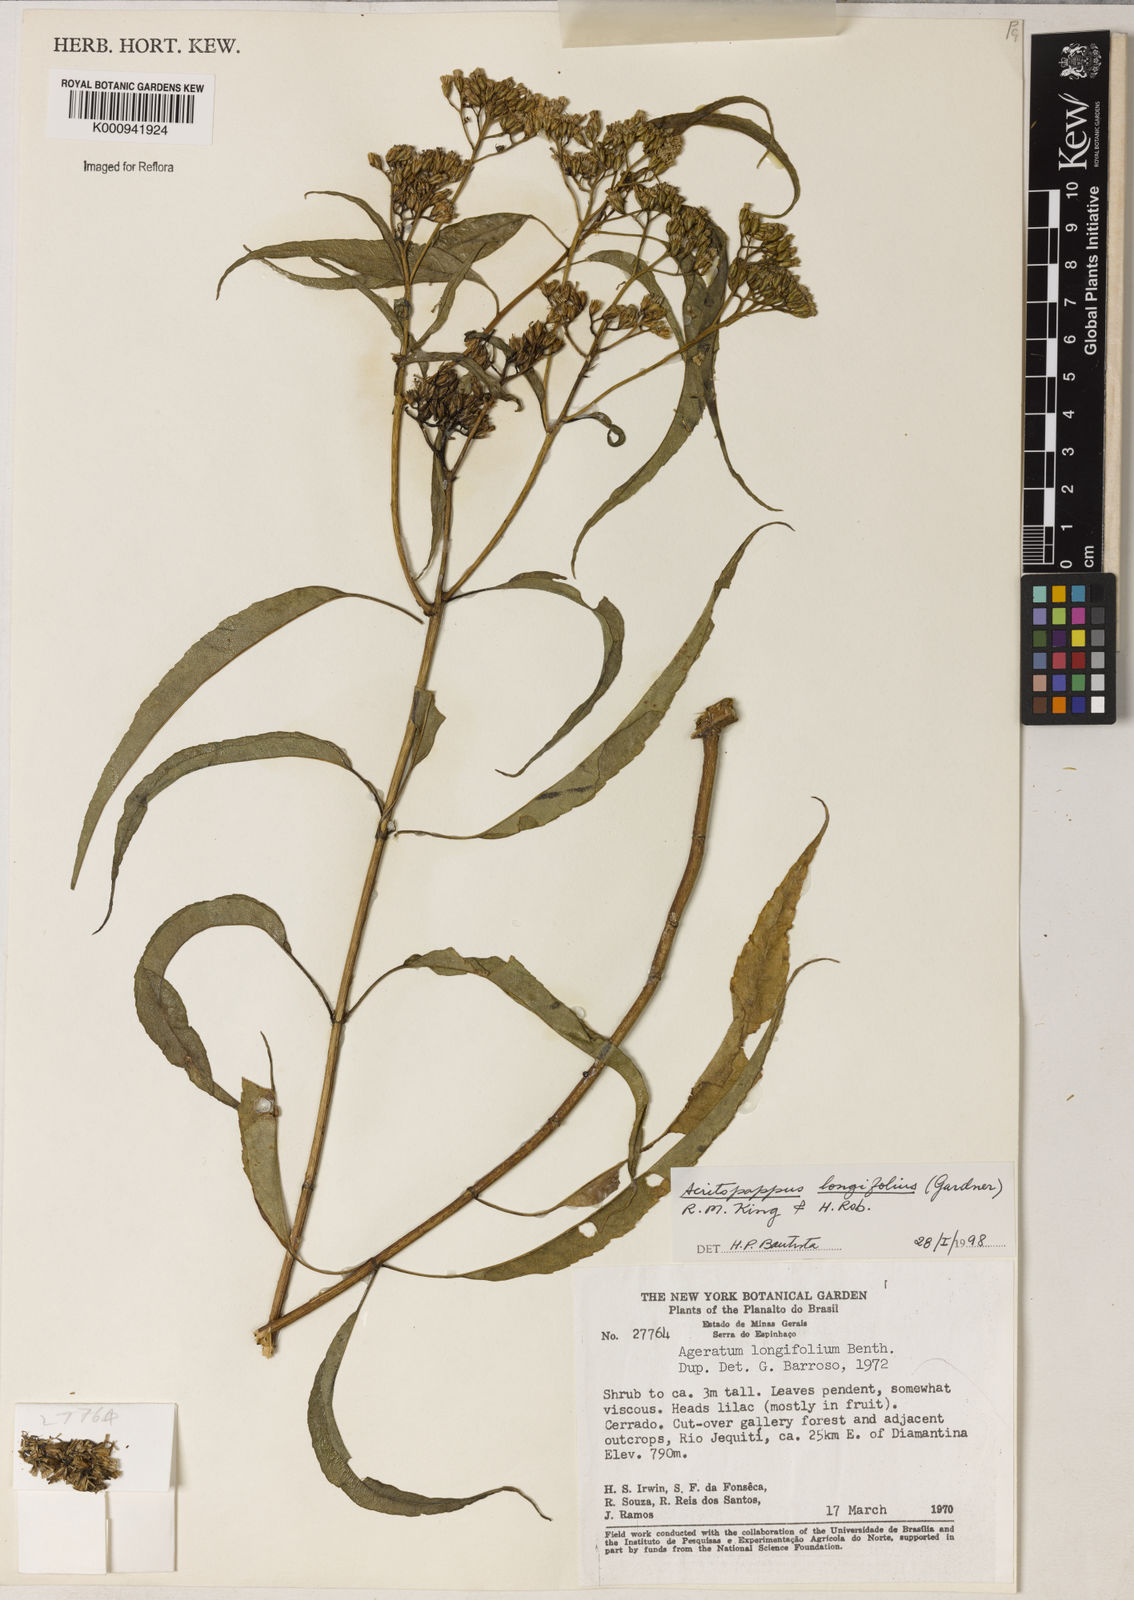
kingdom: Plantae
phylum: Tracheophyta
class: Magnoliopsida
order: Asterales
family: Asteraceae
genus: Acritopappus
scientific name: Acritopappus longifolius
